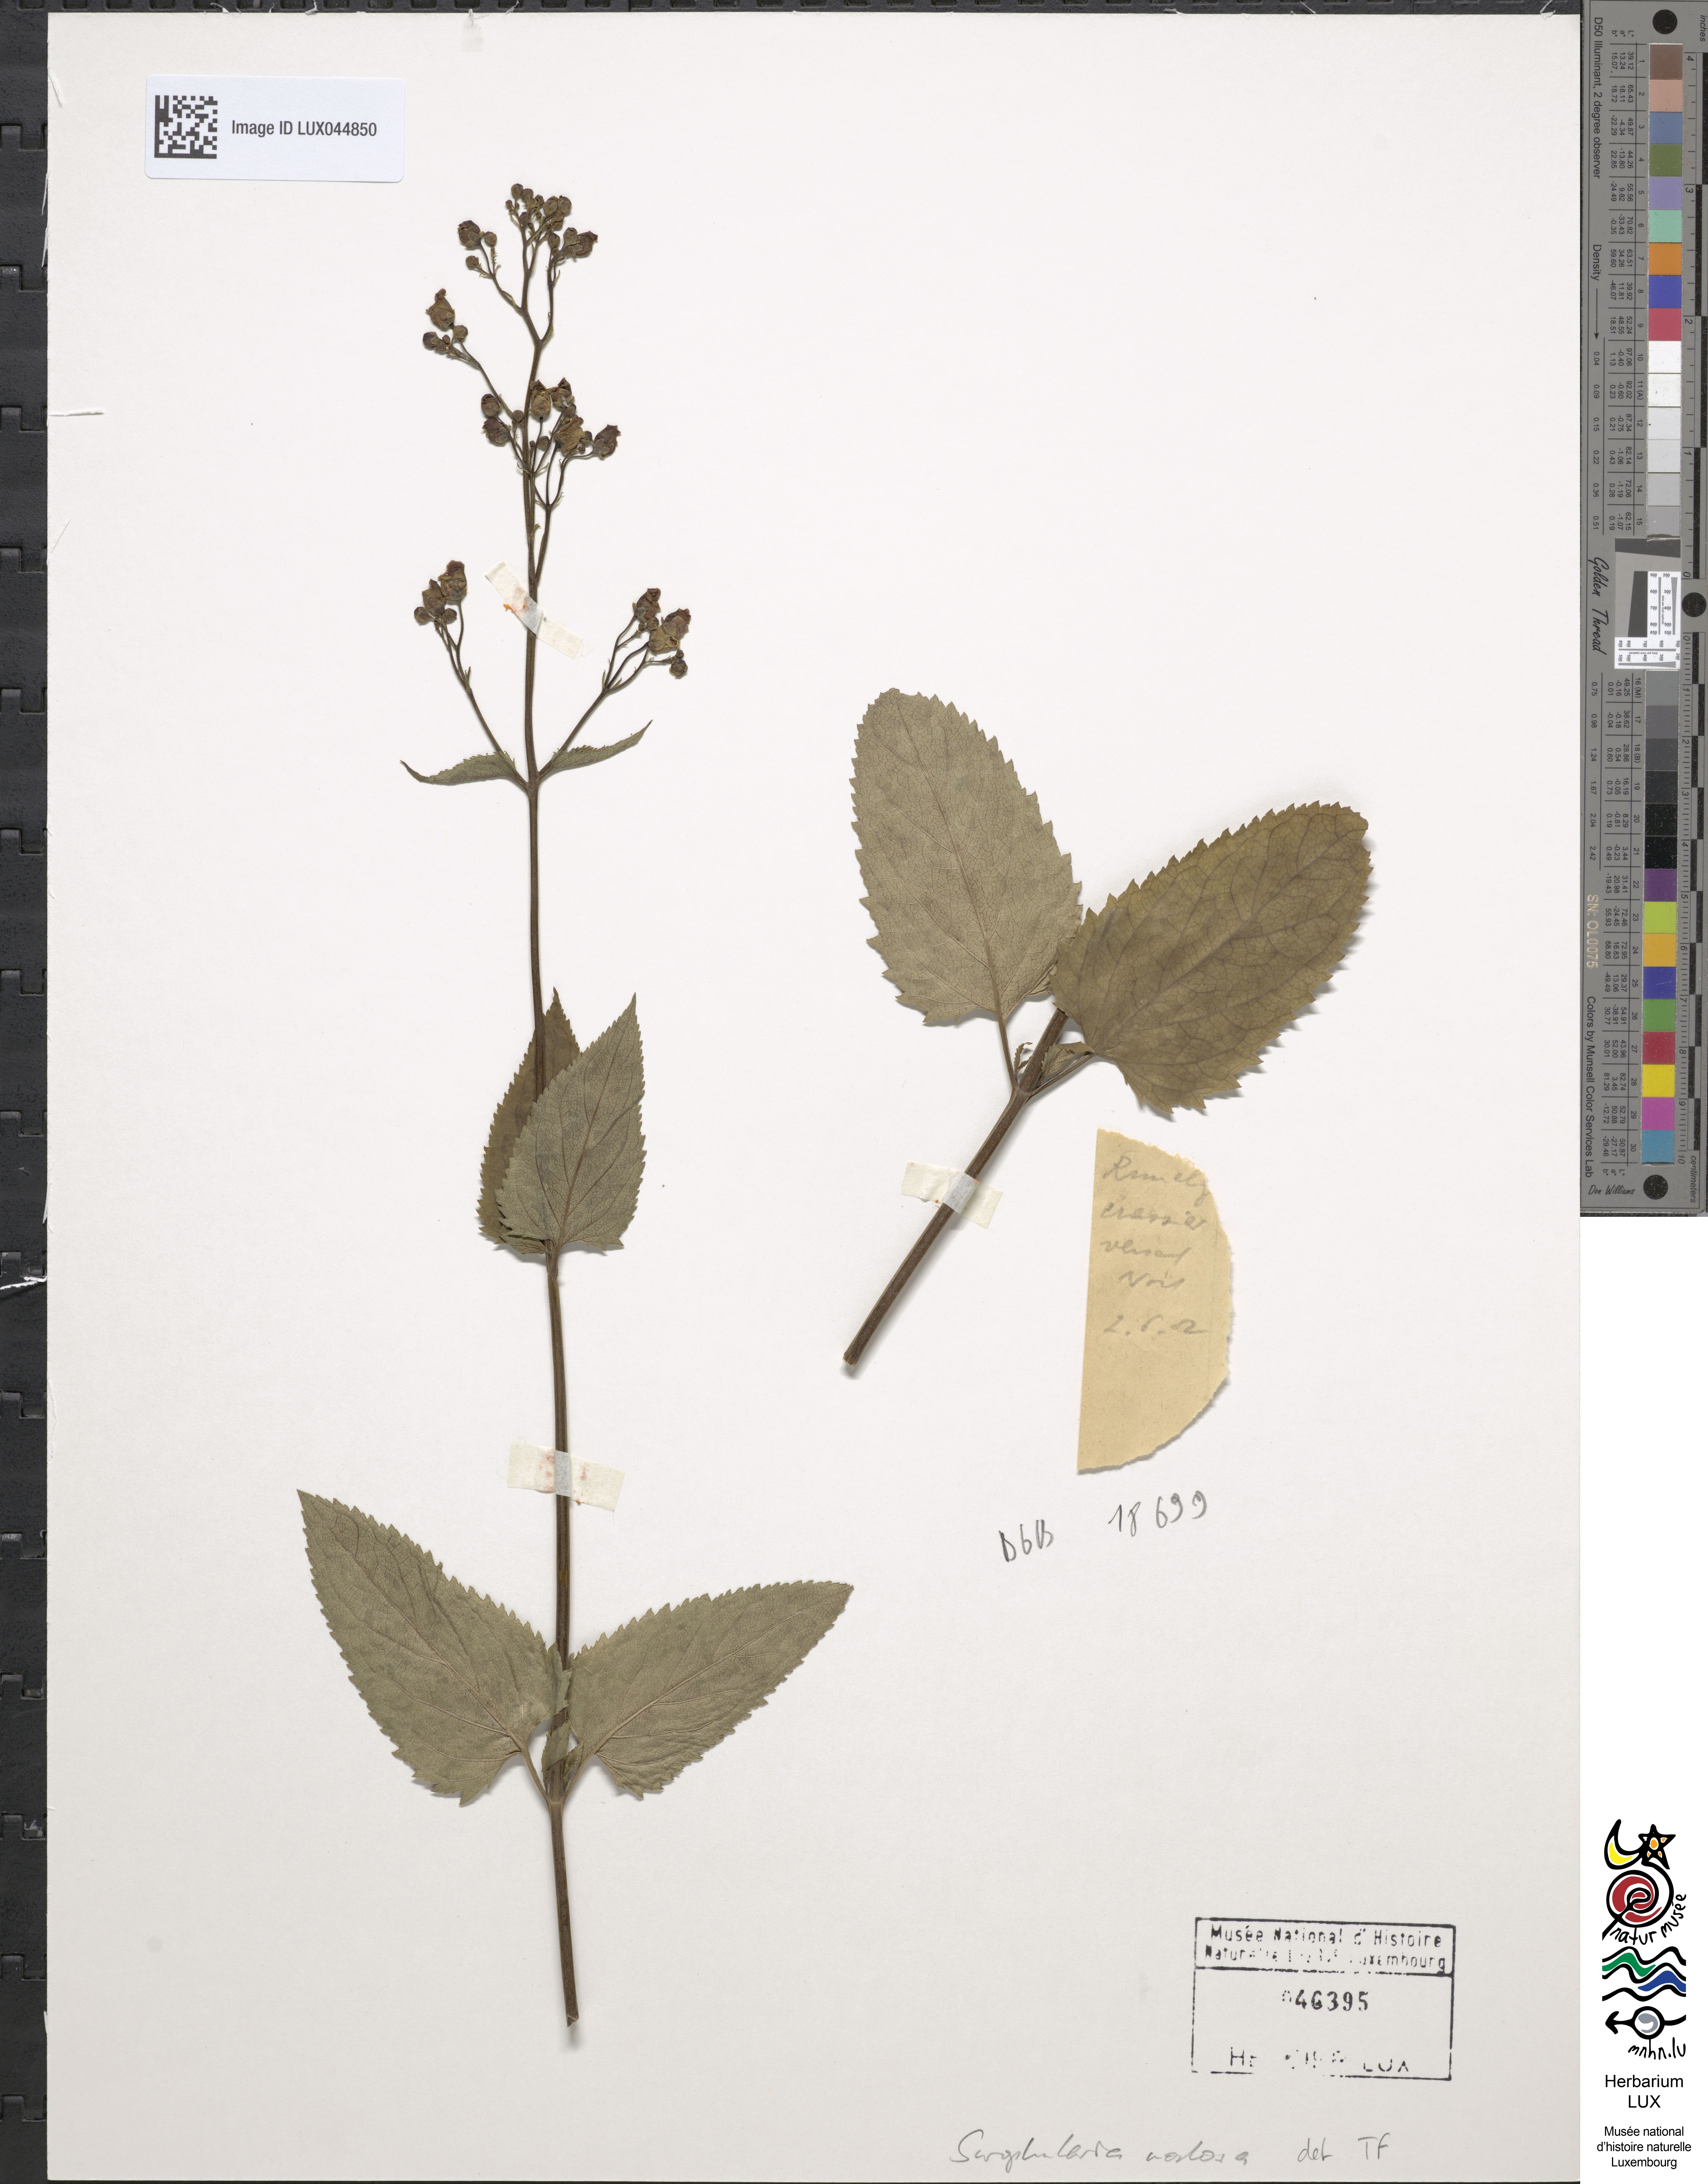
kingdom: Plantae
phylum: Tracheophyta
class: Magnoliopsida
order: Lamiales
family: Scrophulariaceae
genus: Scrophularia
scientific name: Scrophularia nodosa
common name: Common figwort
